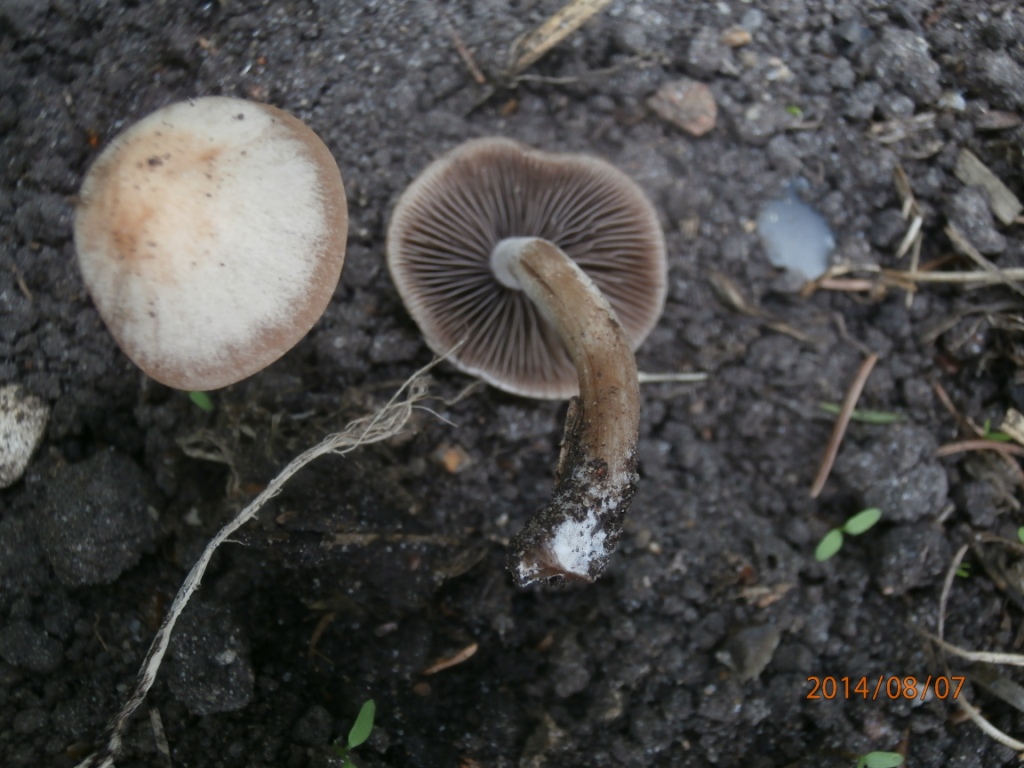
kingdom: Fungi
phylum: Basidiomycota
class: Agaricomycetes
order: Agaricales
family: Bolbitiaceae
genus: Panaeolus
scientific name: Panaeolus cinctulus
